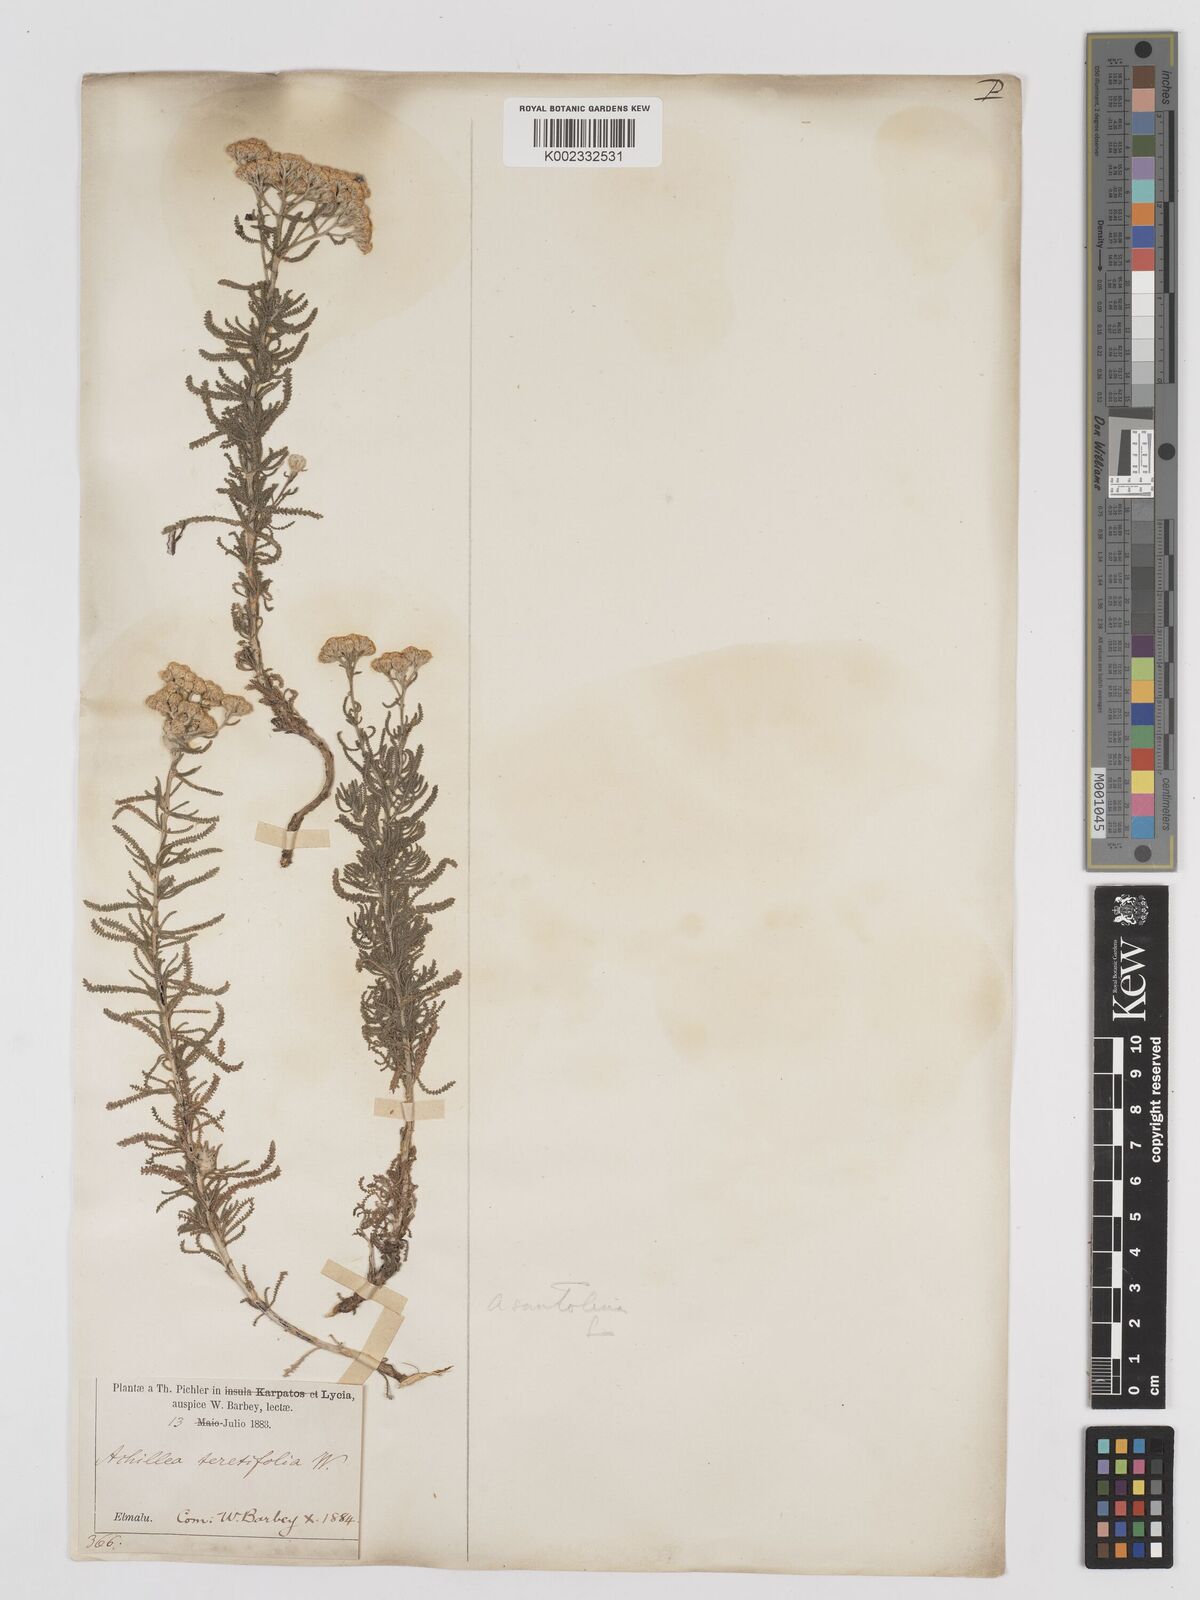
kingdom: Plantae
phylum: Tracheophyta
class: Magnoliopsida
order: Asterales
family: Asteraceae
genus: Achillea
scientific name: Achillea tenuifolia
